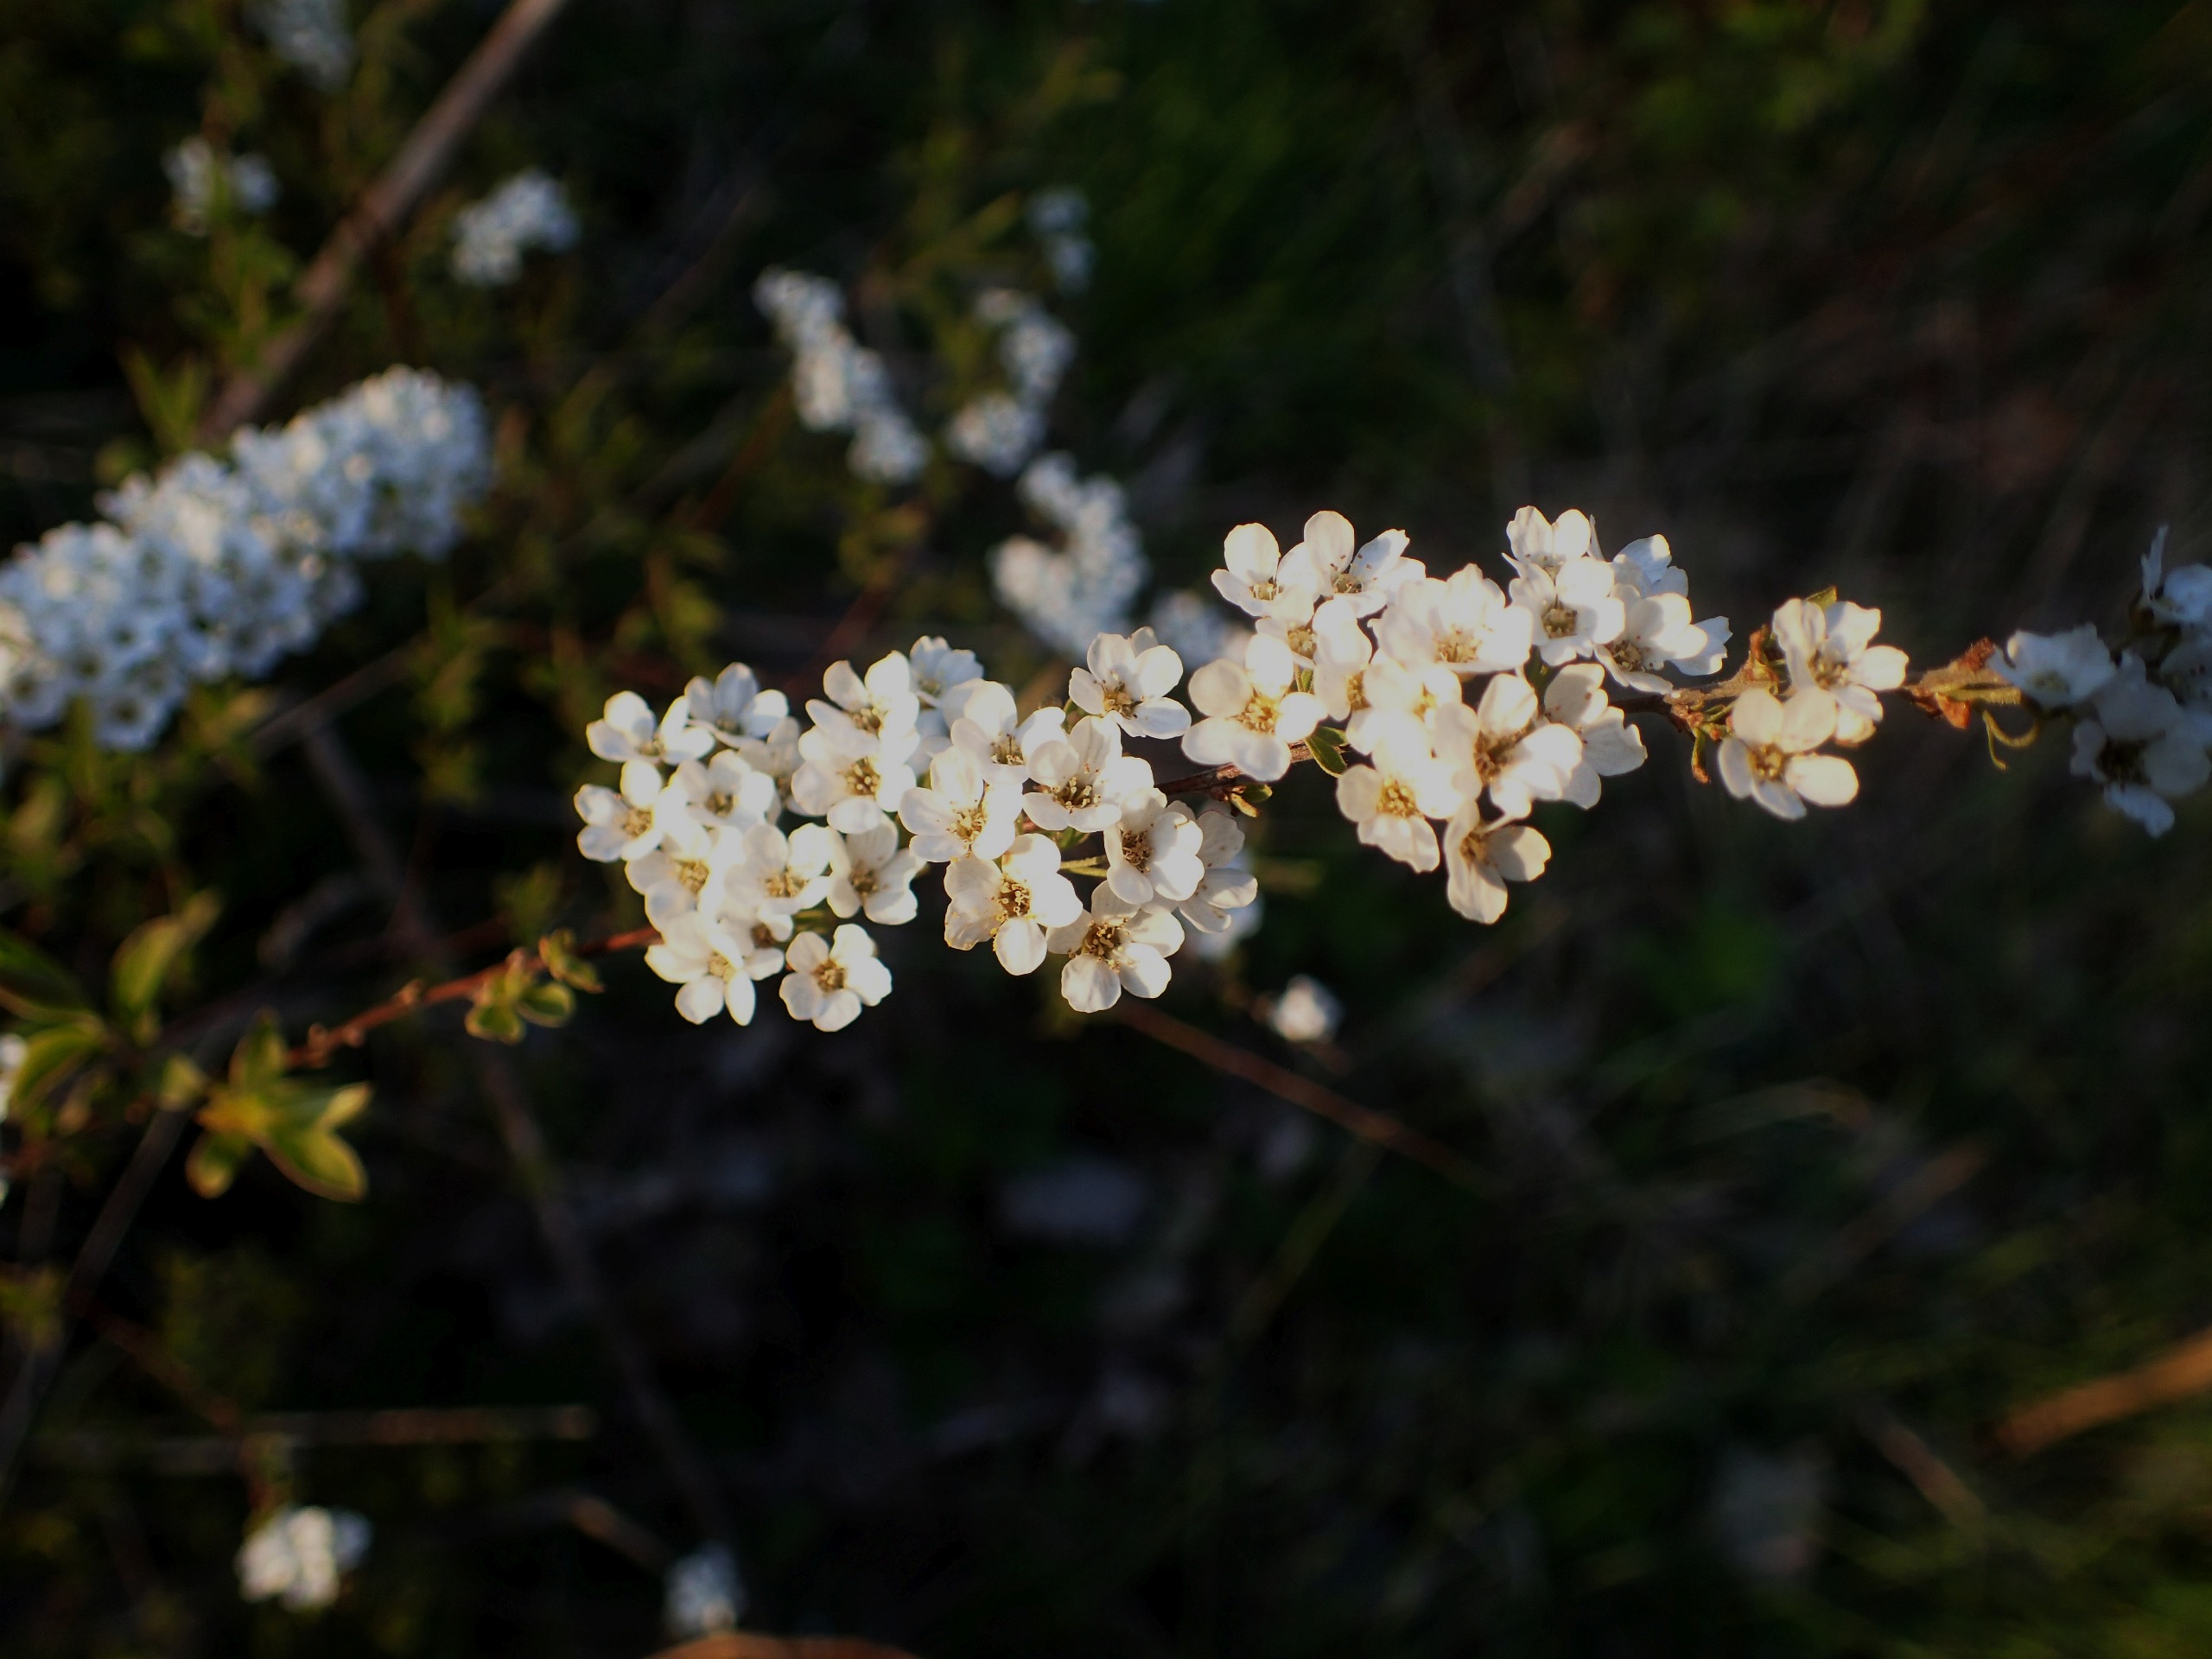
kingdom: Plantae
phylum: Tracheophyta
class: Magnoliopsida
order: Rosales
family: Rosaceae
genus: Prunus
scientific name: Prunus spinosa
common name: Slåen
